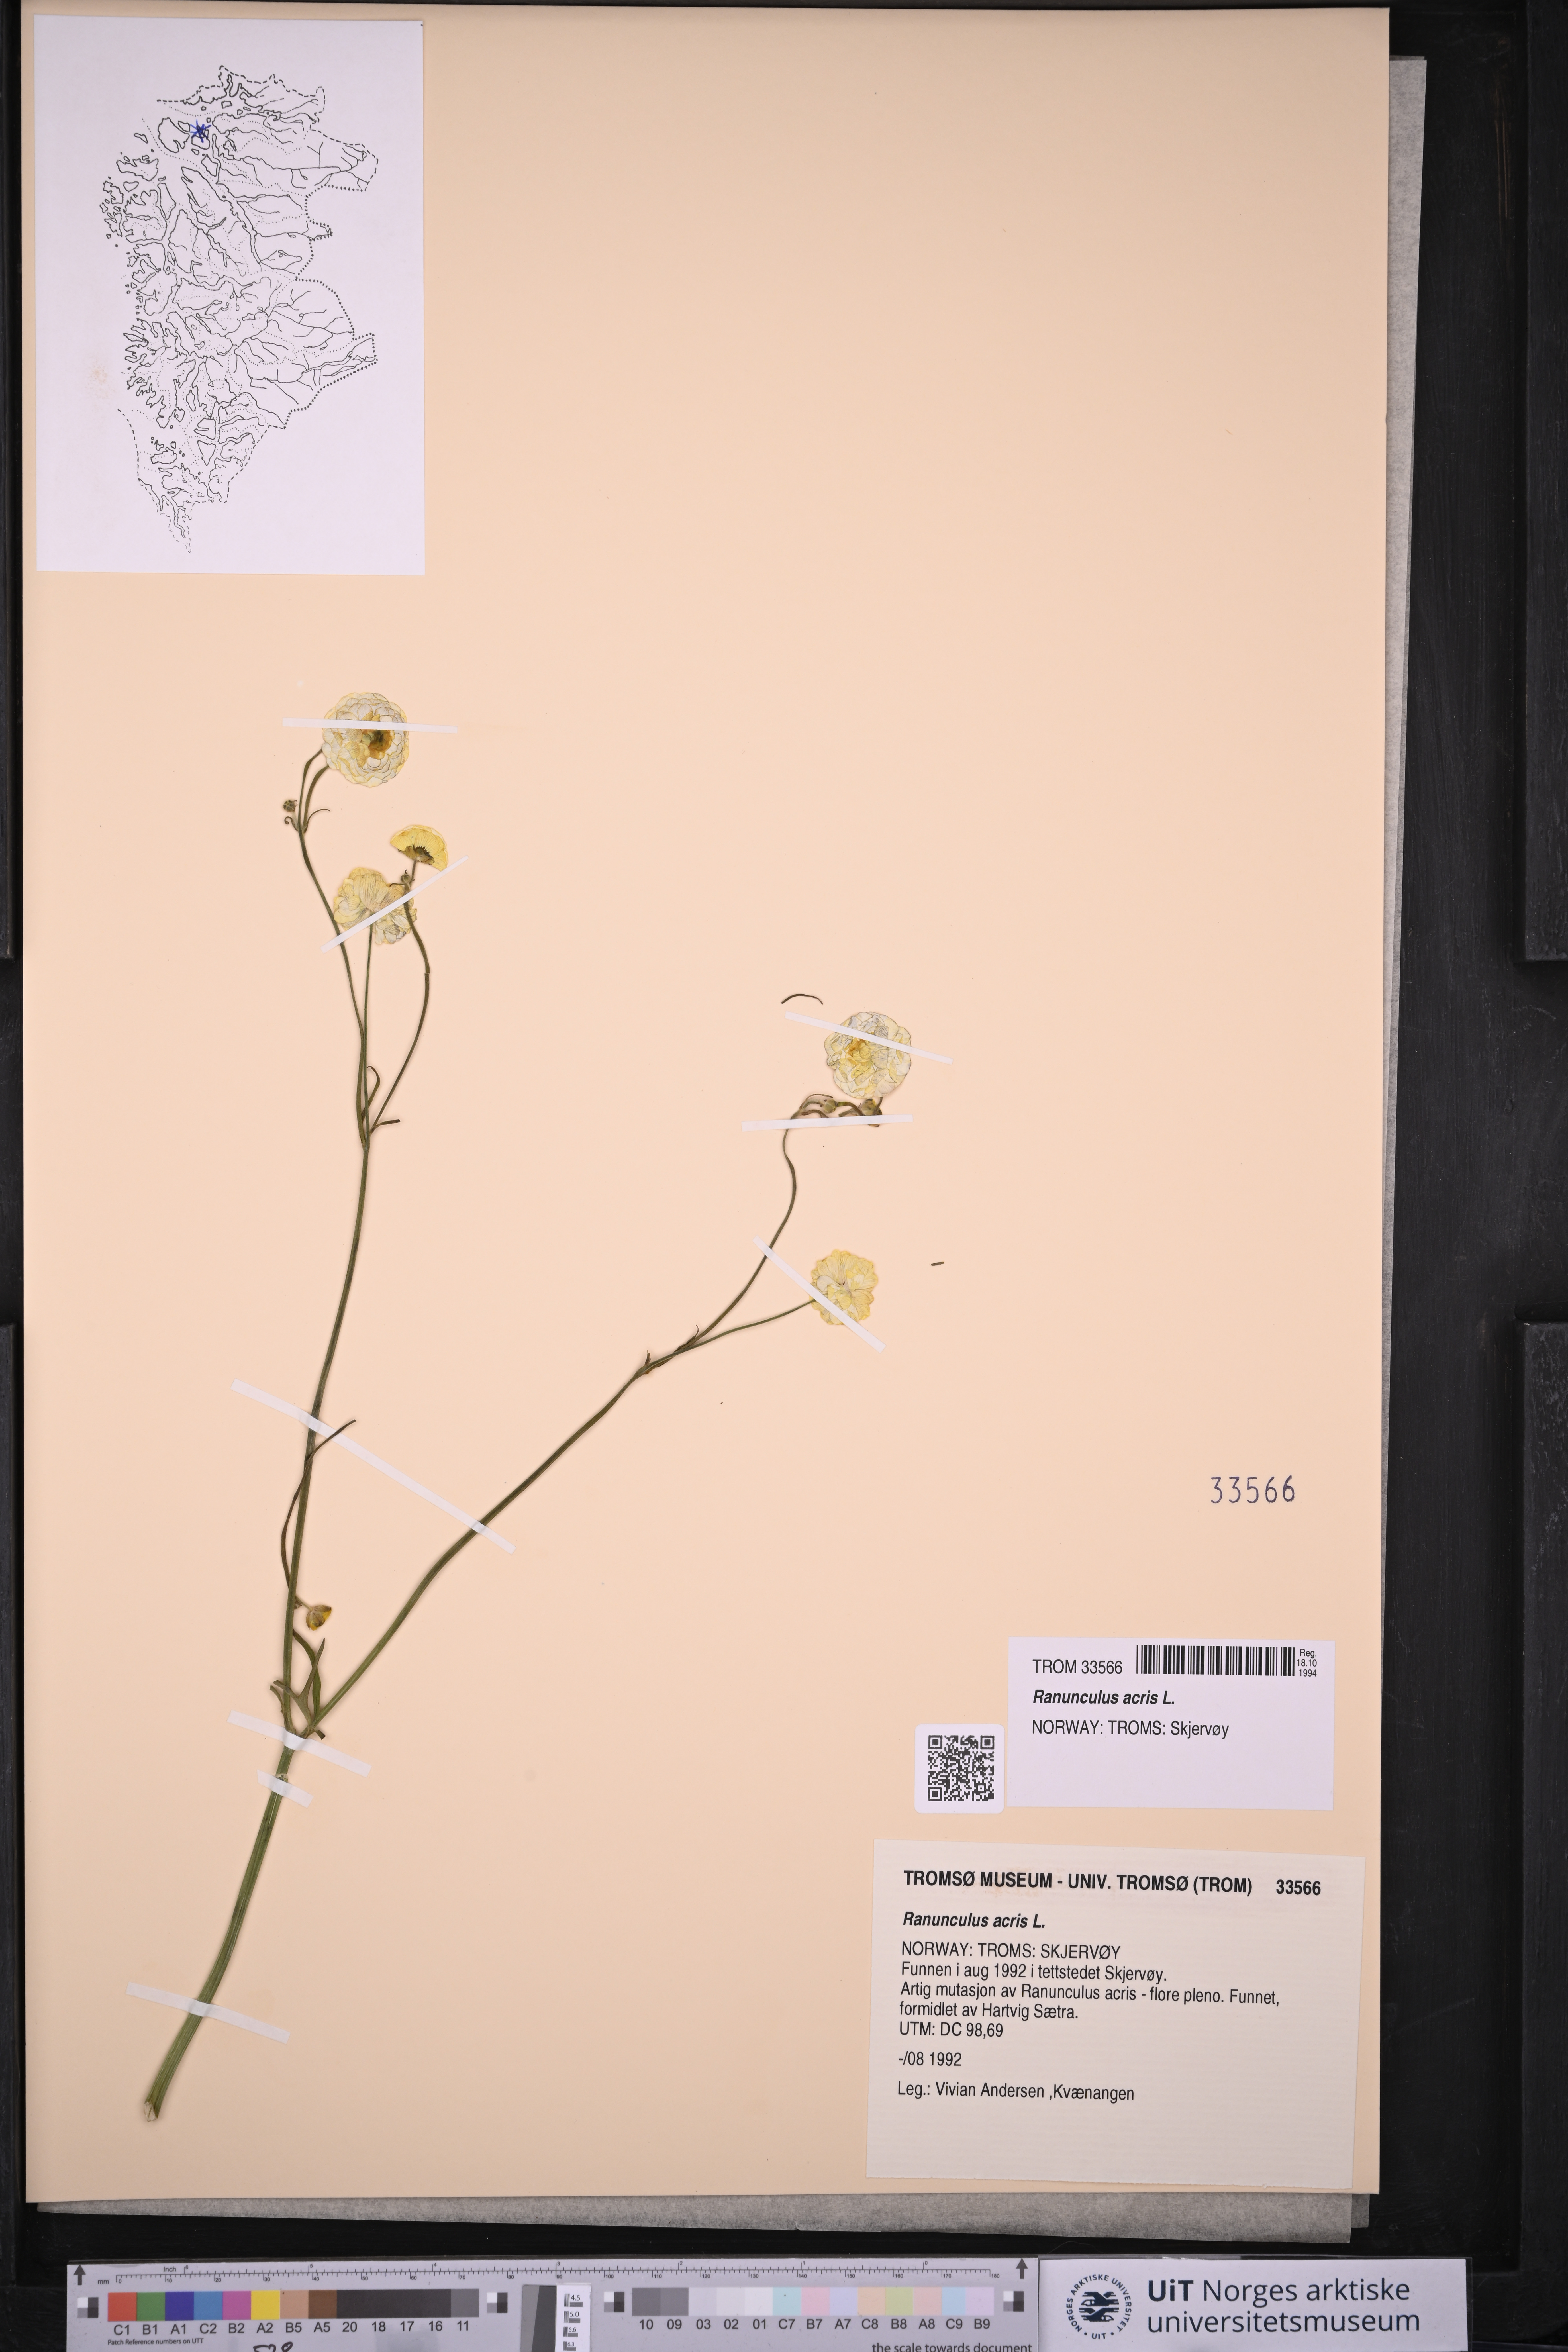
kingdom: Plantae
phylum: Tracheophyta
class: Magnoliopsida
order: Ranunculales
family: Ranunculaceae
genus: Ranunculus
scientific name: Ranunculus acris
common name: Meadow buttercup
